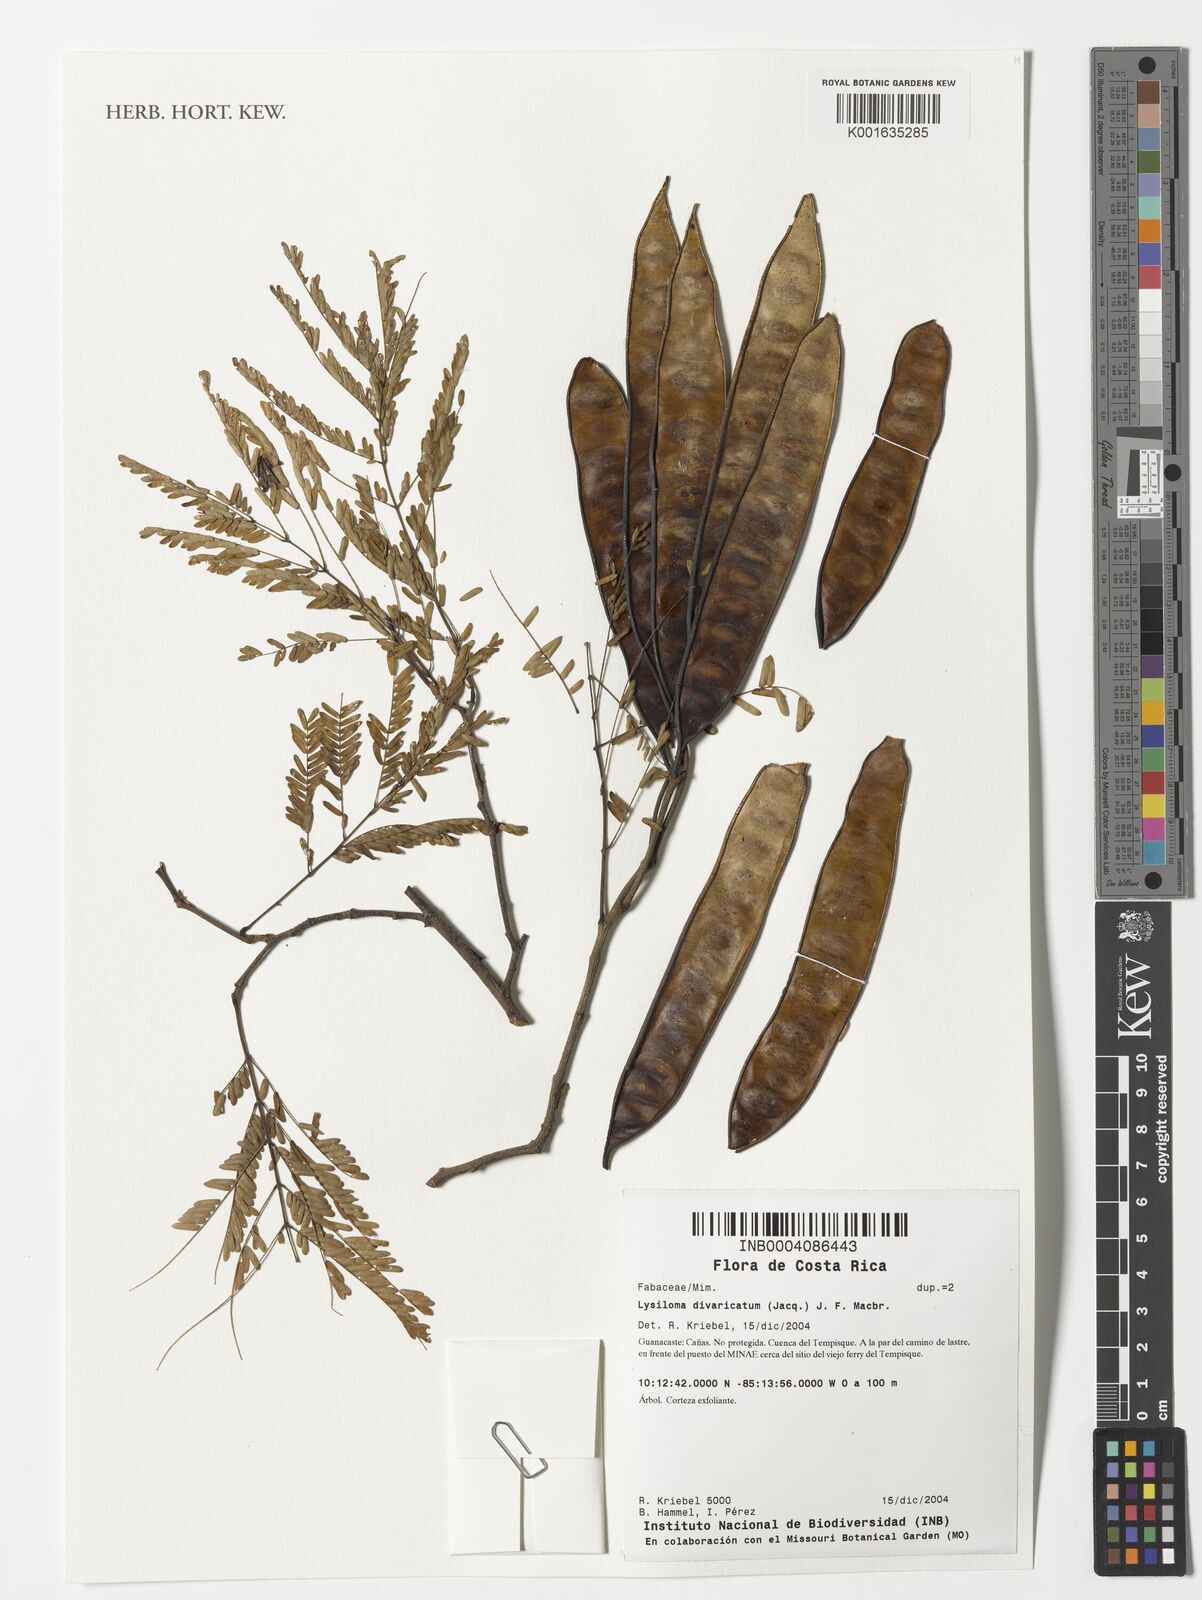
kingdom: Plantae
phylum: Tracheophyta
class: Magnoliopsida
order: Fabales
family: Fabaceae
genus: Lysiloma
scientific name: Lysiloma divaricatum
